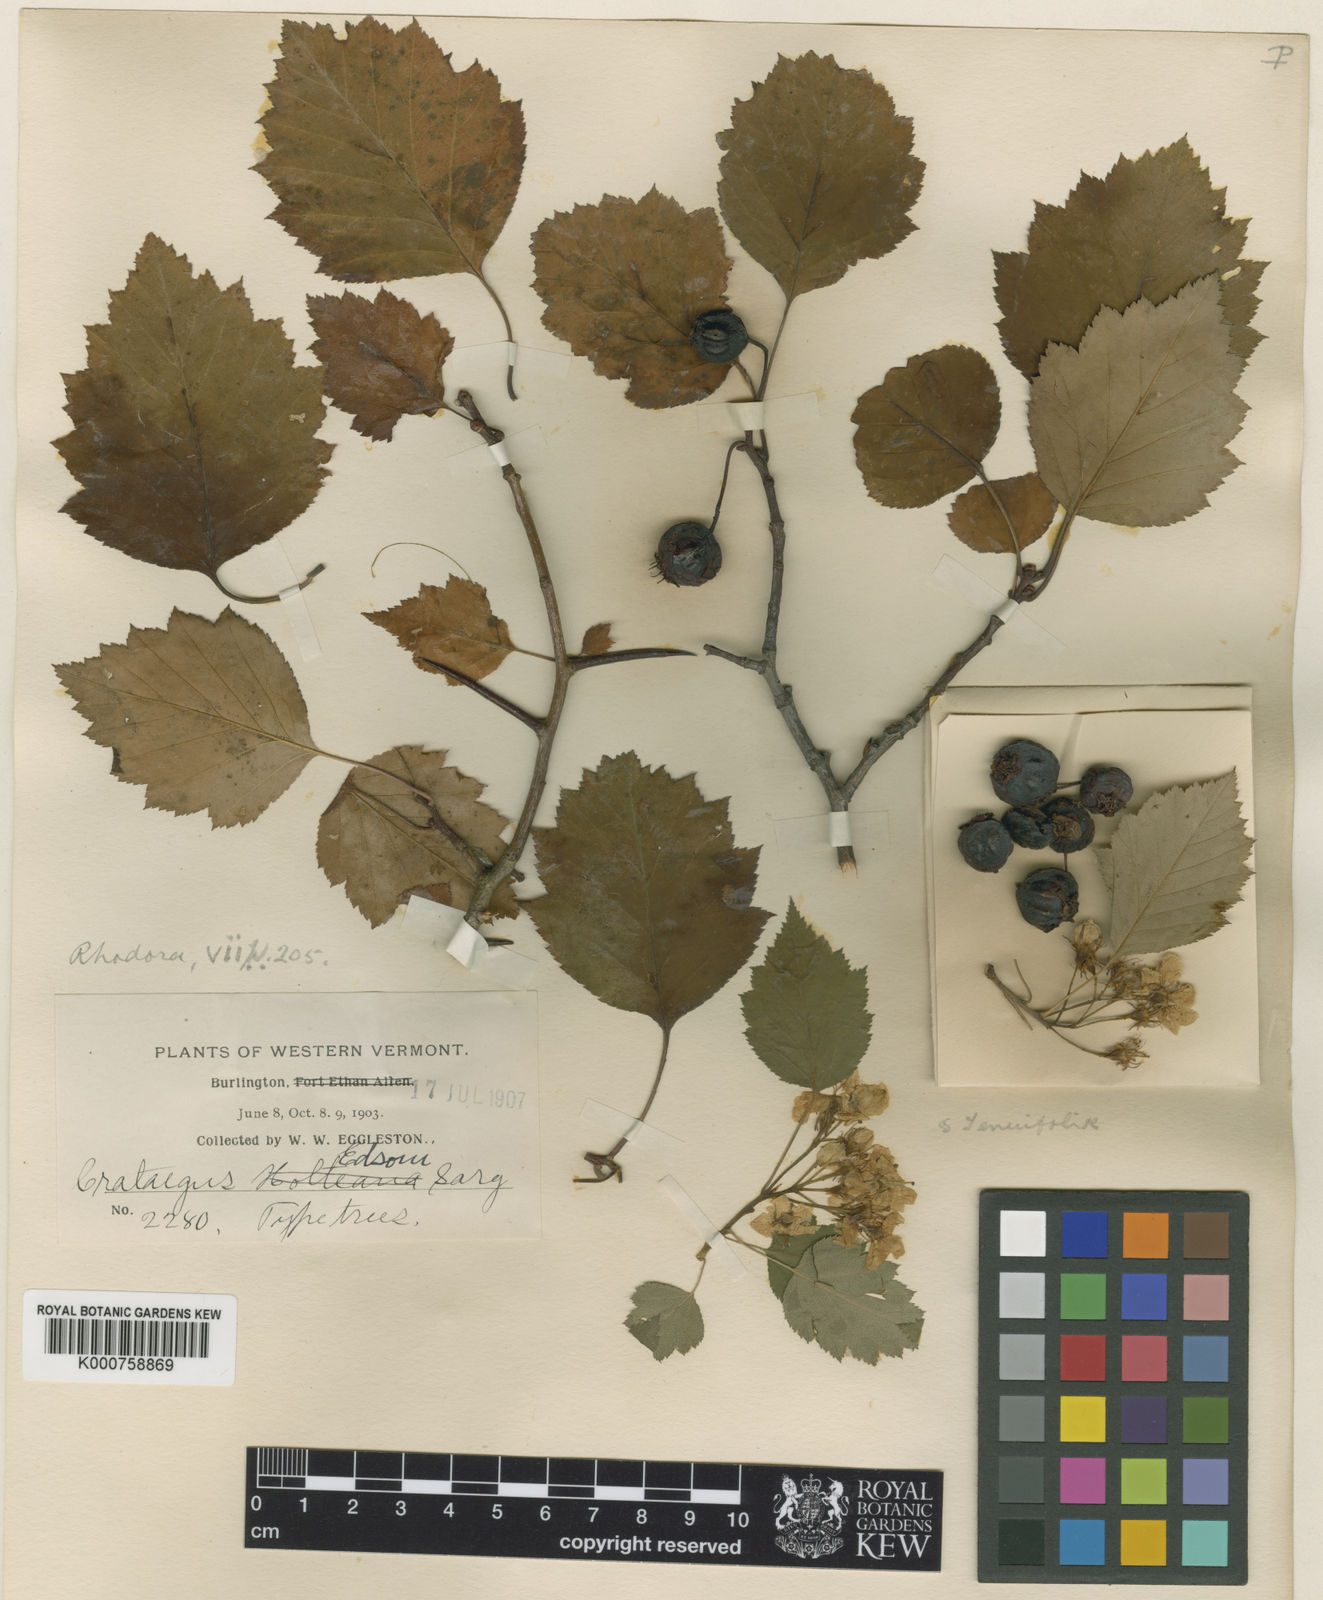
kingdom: Plantae
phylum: Tracheophyta
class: Magnoliopsida
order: Rosales
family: Rosaceae
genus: Crataegus
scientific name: Crataegus
